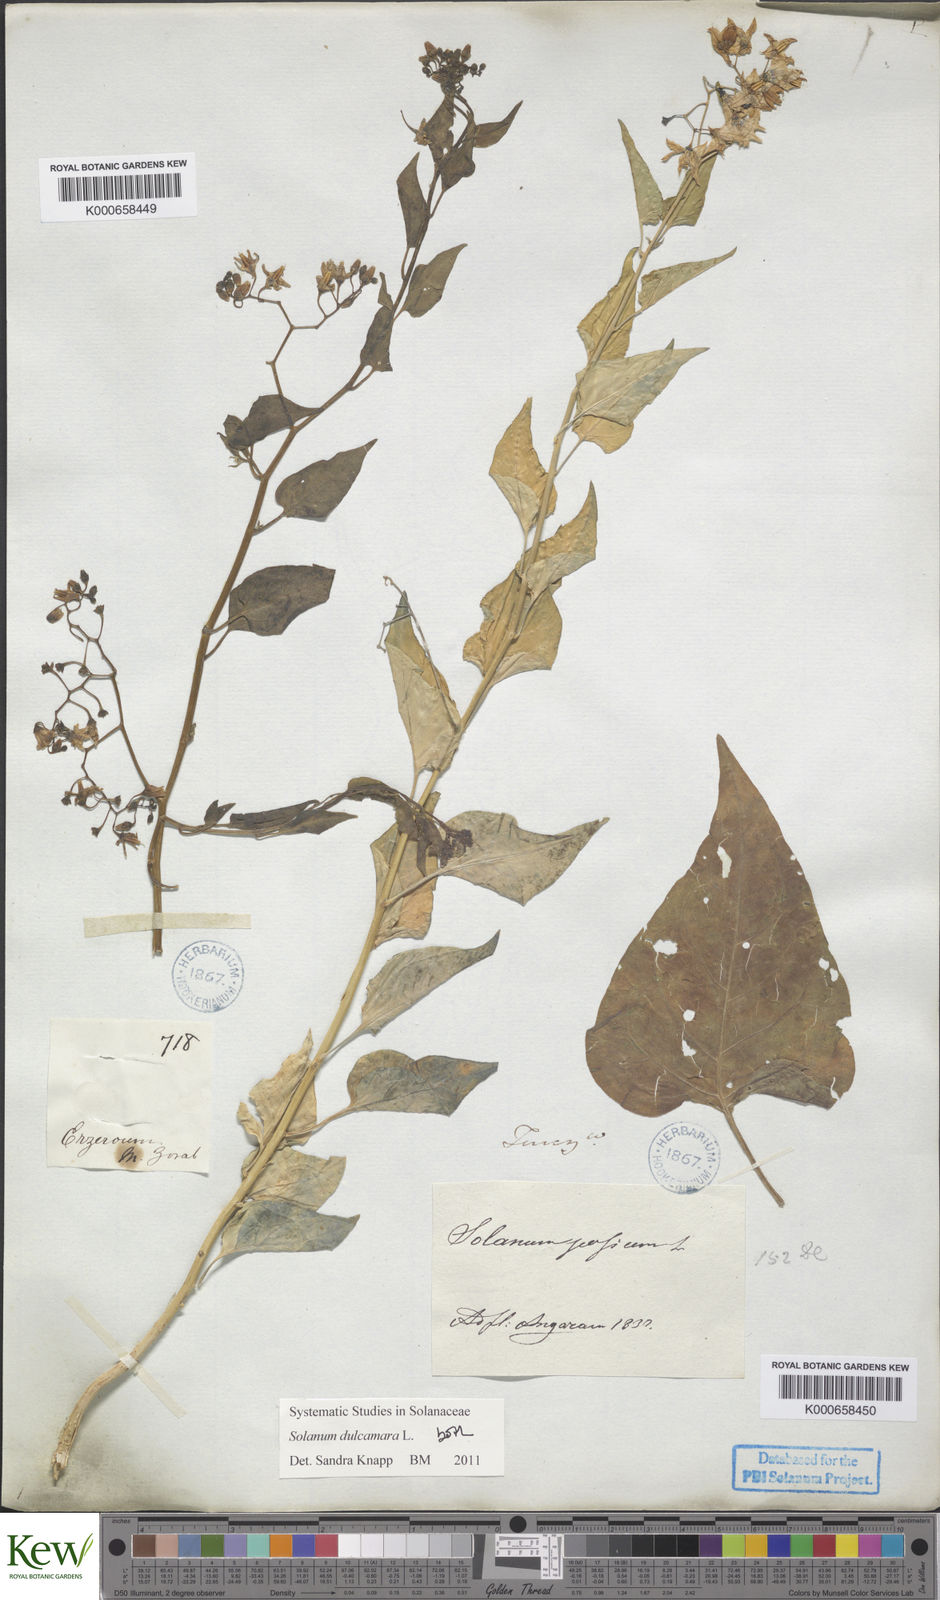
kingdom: Plantae
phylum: Tracheophyta
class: Magnoliopsida
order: Solanales
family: Solanaceae
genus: Solanum
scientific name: Solanum dulcamara
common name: Climbing nightshade
